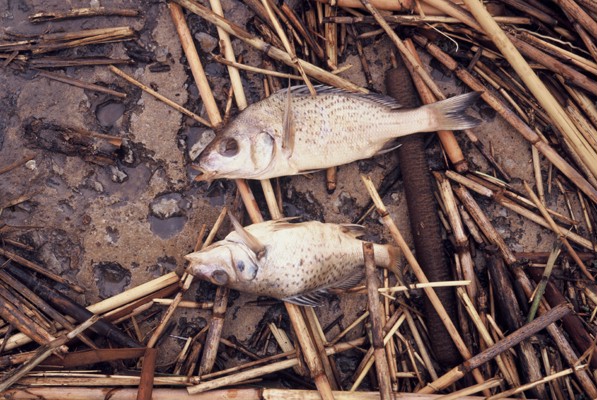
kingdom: Animalia
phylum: Chordata
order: Perciformes
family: Haemulidae
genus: Pomadasys
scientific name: Pomadasys commersonnii
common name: Smallspotted grunter
